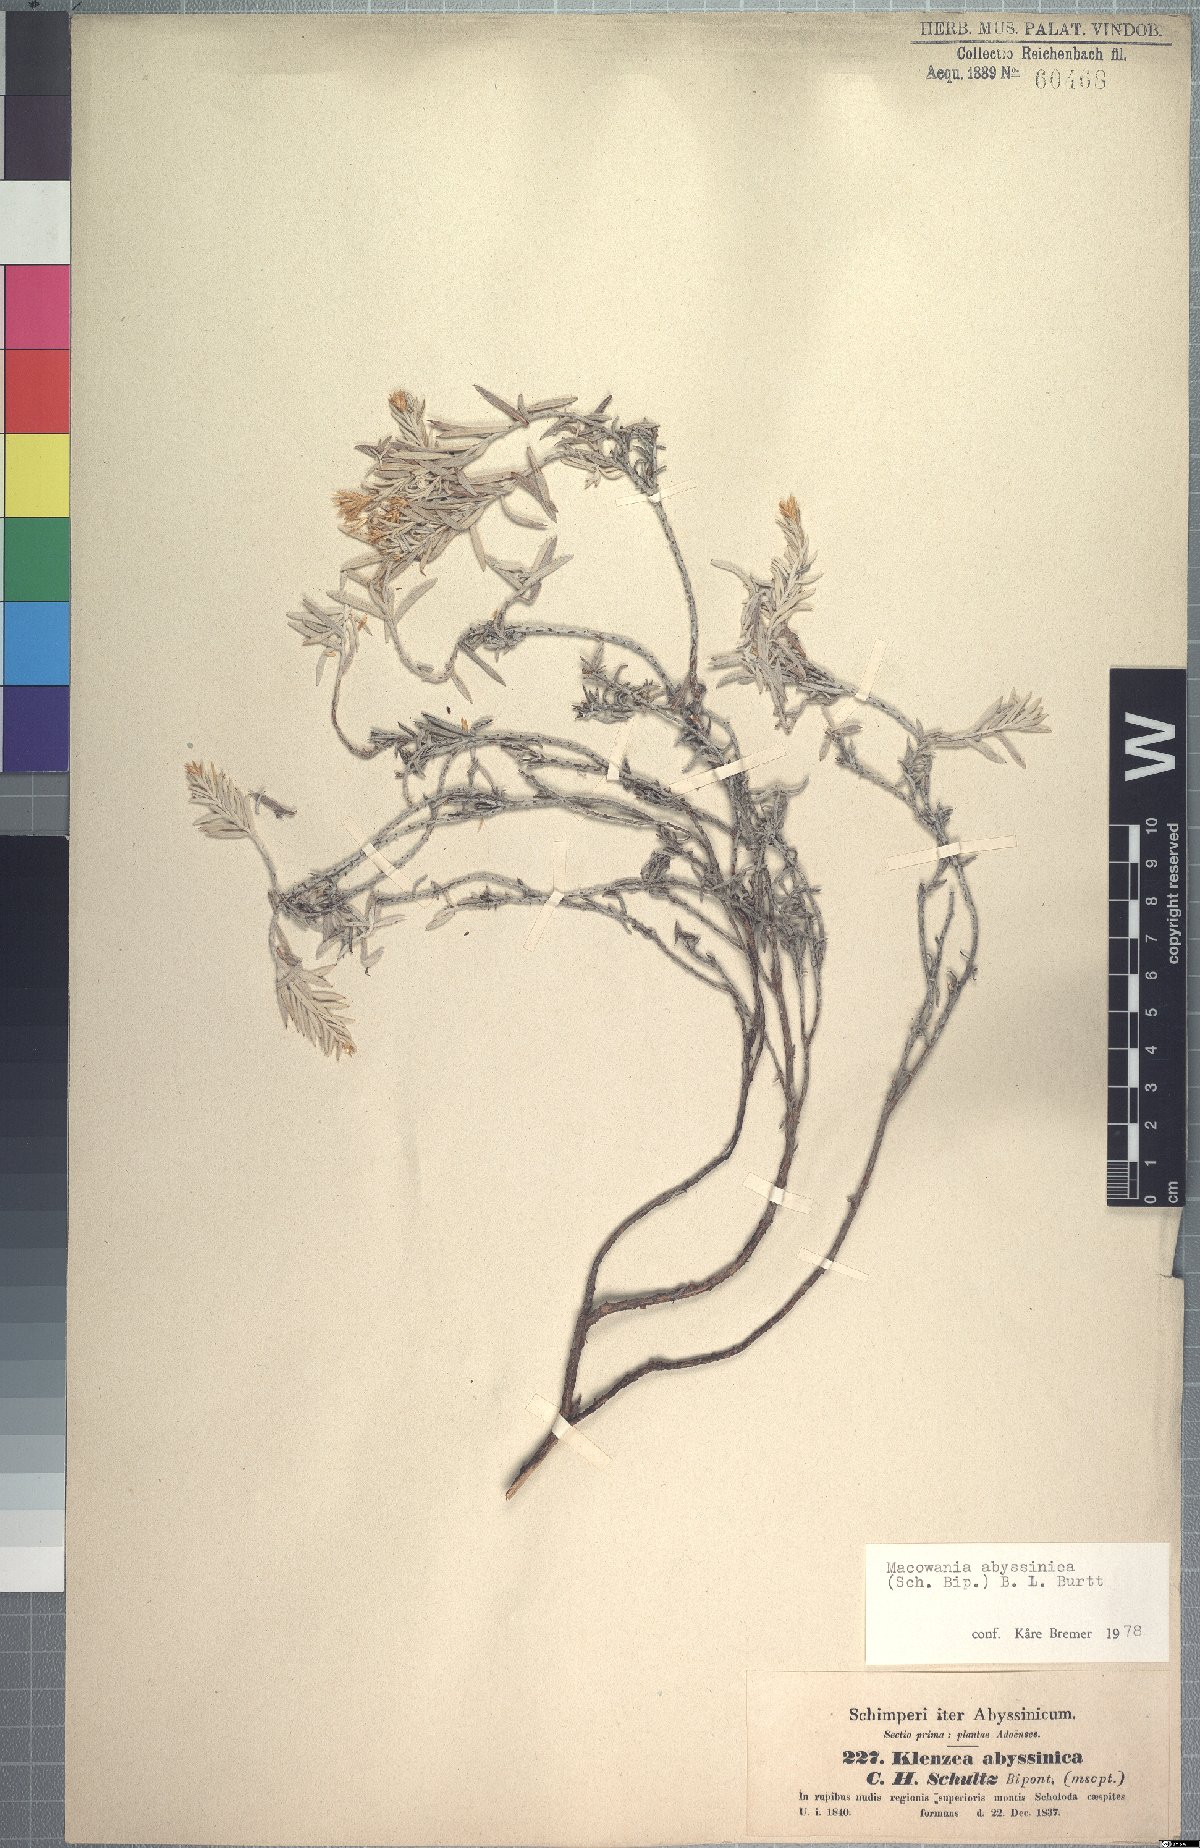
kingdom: Plantae
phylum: Tracheophyta
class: Magnoliopsida
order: Asterales
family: Asteraceae
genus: Arrowsmithia
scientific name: Arrowsmithia abyssinica
